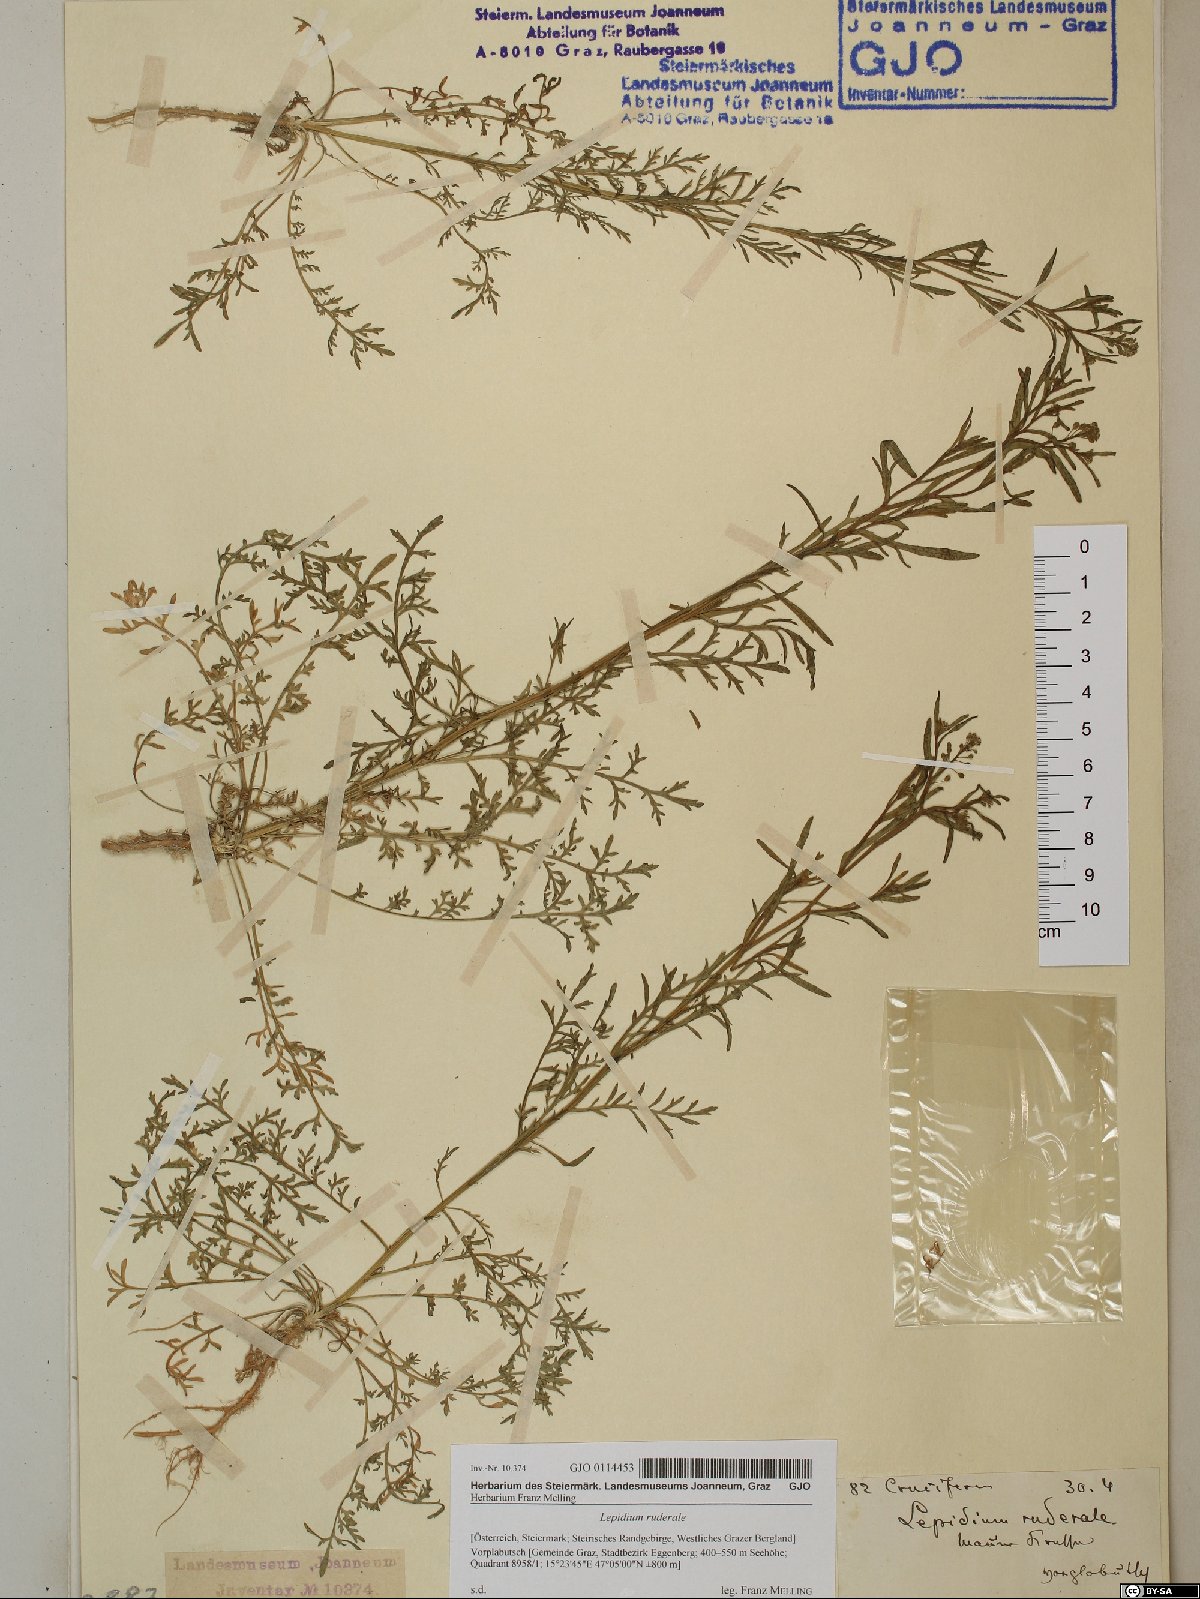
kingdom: Plantae
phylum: Tracheophyta
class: Magnoliopsida
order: Brassicales
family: Brassicaceae
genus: Lepidium
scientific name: Lepidium ruderale
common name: Narrow-leaved pepperwort
